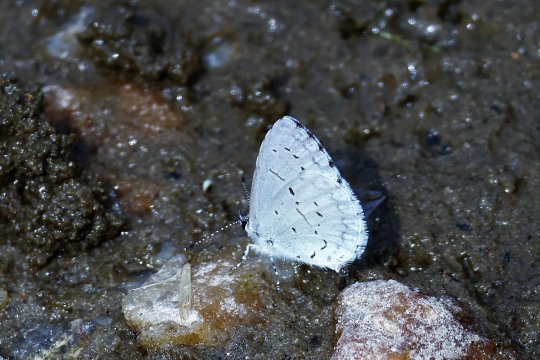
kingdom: Animalia
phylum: Arthropoda
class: Insecta
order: Lepidoptera
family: Lycaenidae
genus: Celastrina
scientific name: Celastrina neglectamajor
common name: Appalachian Azure
